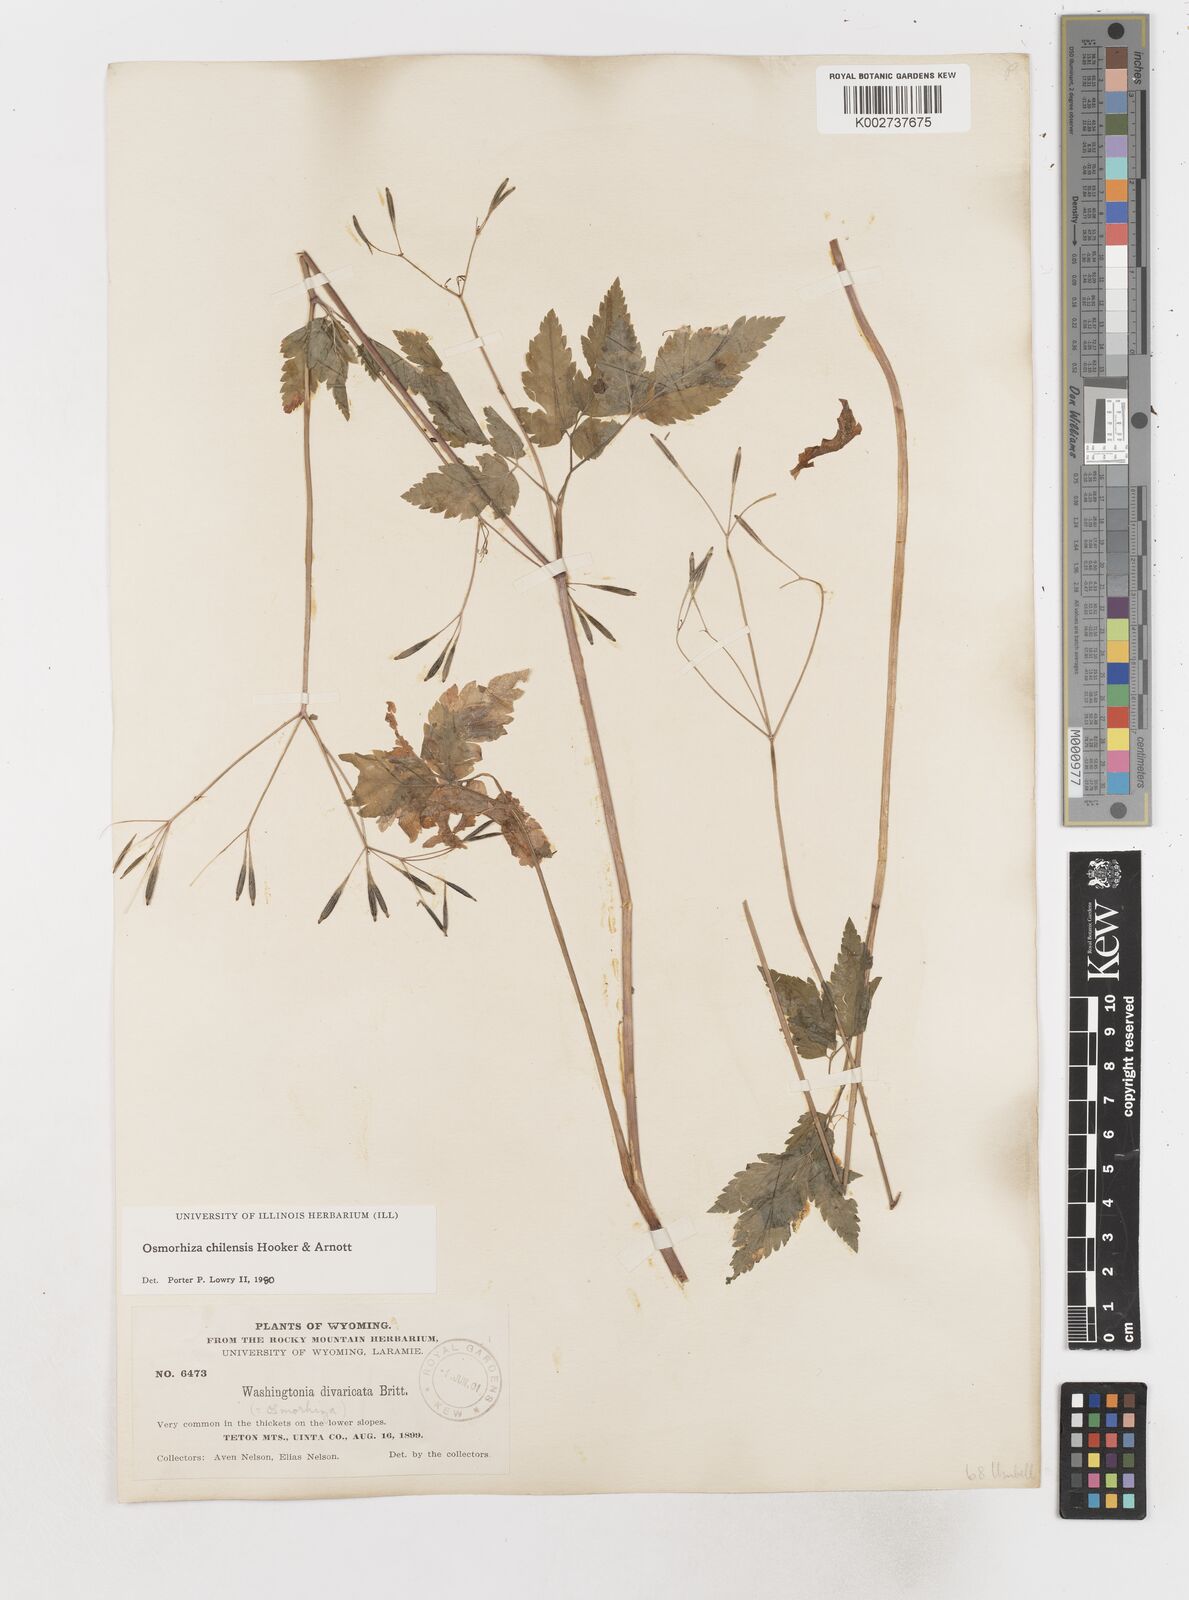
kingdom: Plantae
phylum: Tracheophyta
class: Magnoliopsida
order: Apiales
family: Apiaceae
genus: Osmorhiza
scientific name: Osmorhiza berteroi
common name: Mountain sweet cicely
